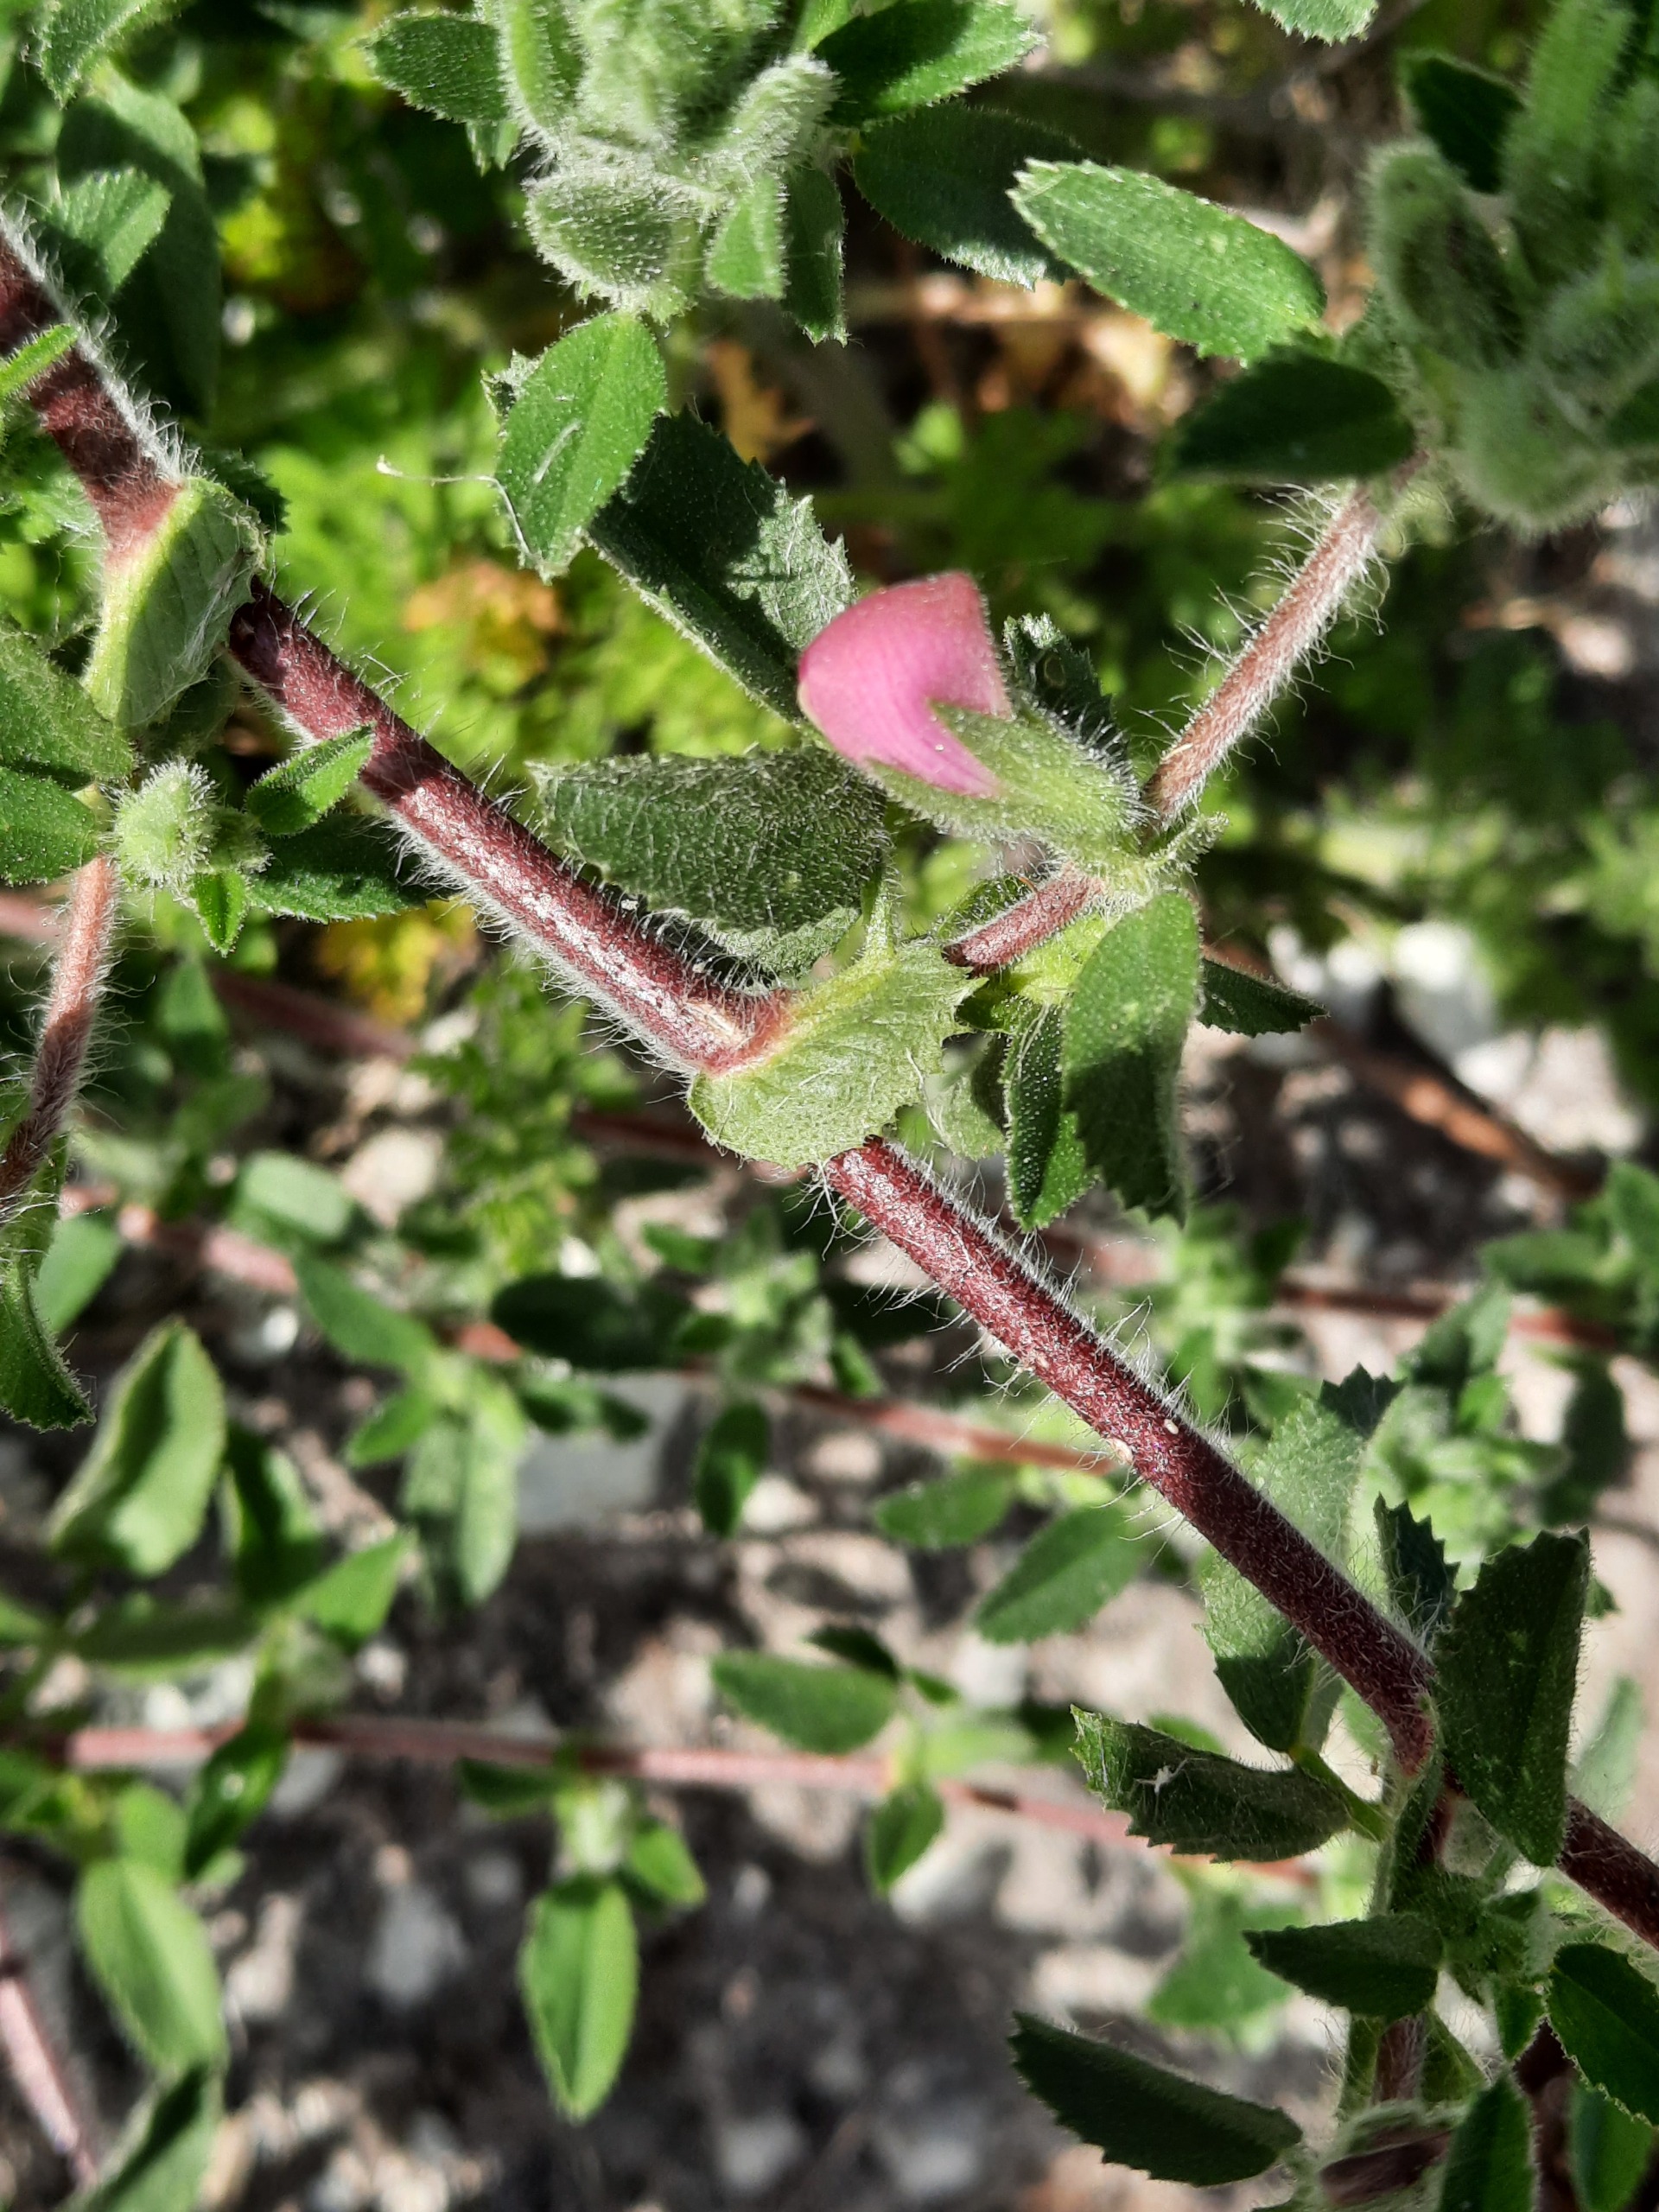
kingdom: Plantae
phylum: Tracheophyta
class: Magnoliopsida
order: Fabales
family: Fabaceae
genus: Ononis
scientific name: Ononis spinosa
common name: Mark-krageklo
